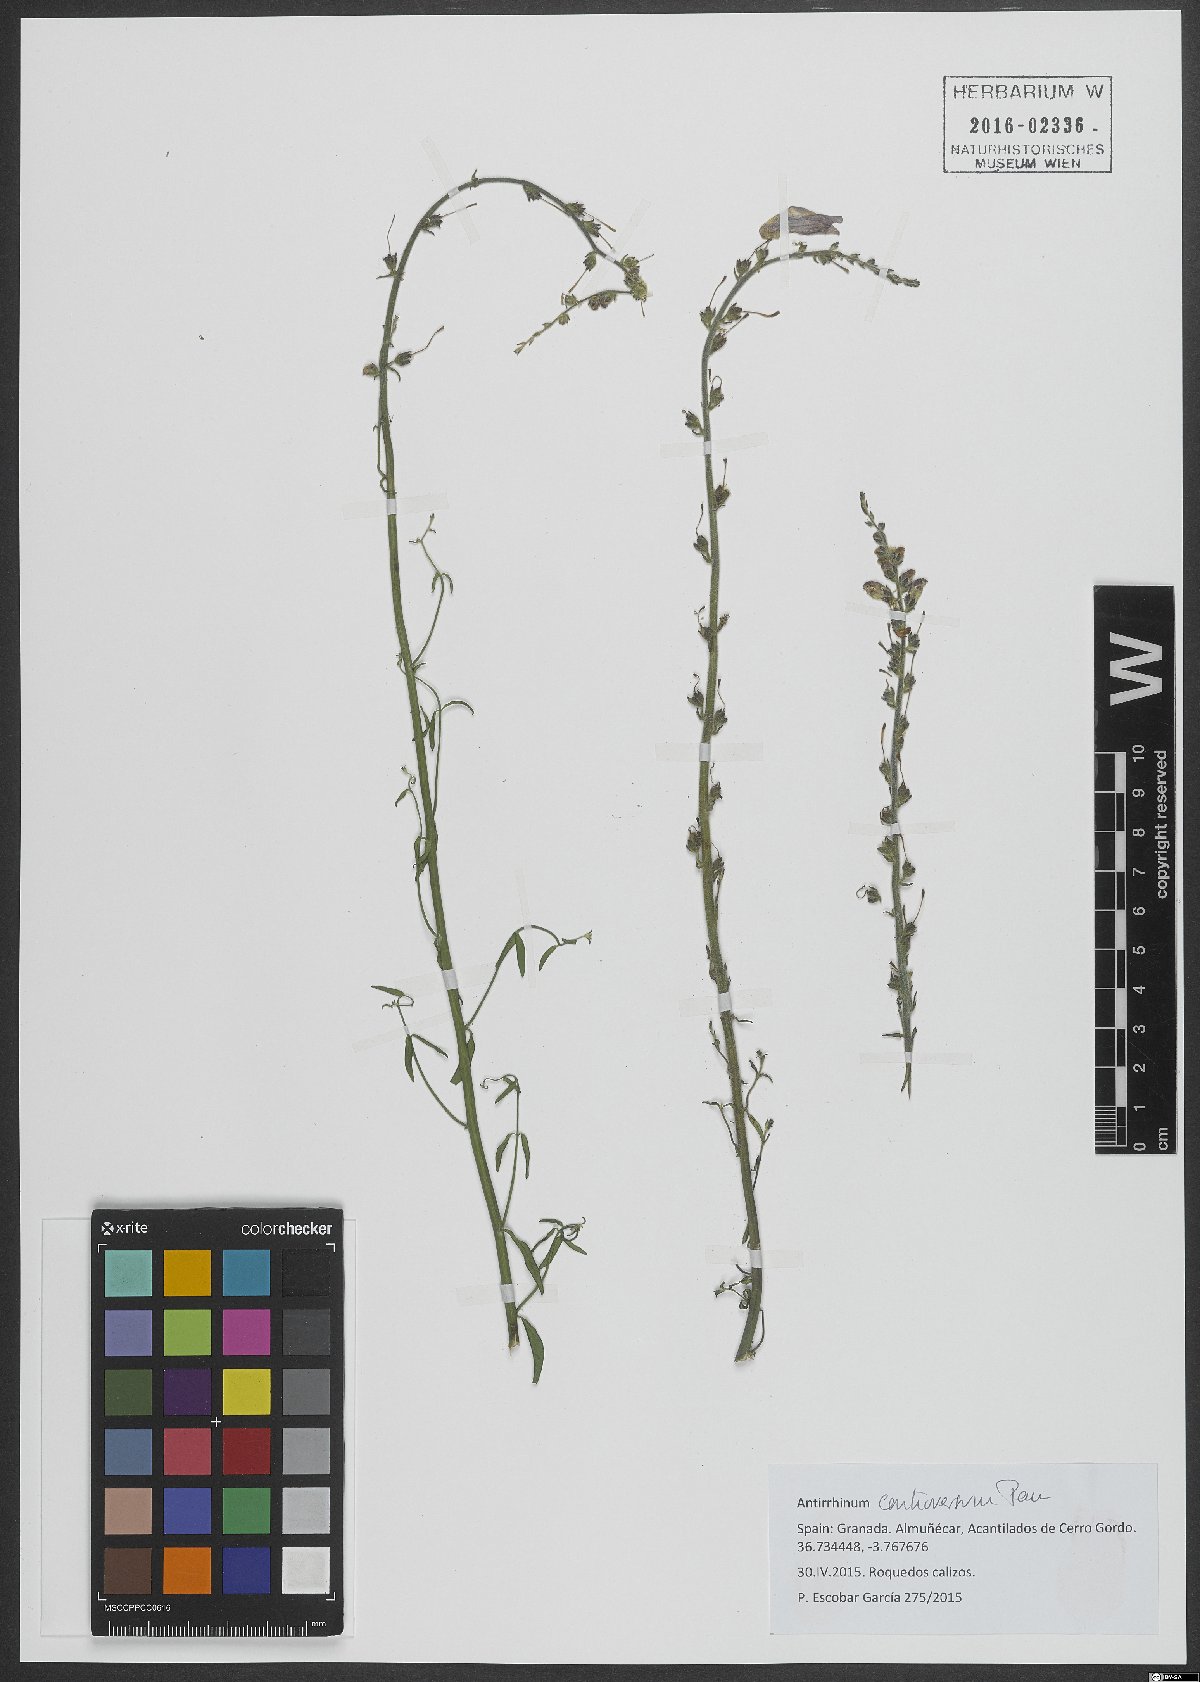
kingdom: Plantae
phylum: Tracheophyta
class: Magnoliopsida
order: Lamiales
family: Plantaginaceae
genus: Antirrhinum
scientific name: Antirrhinum controversum
